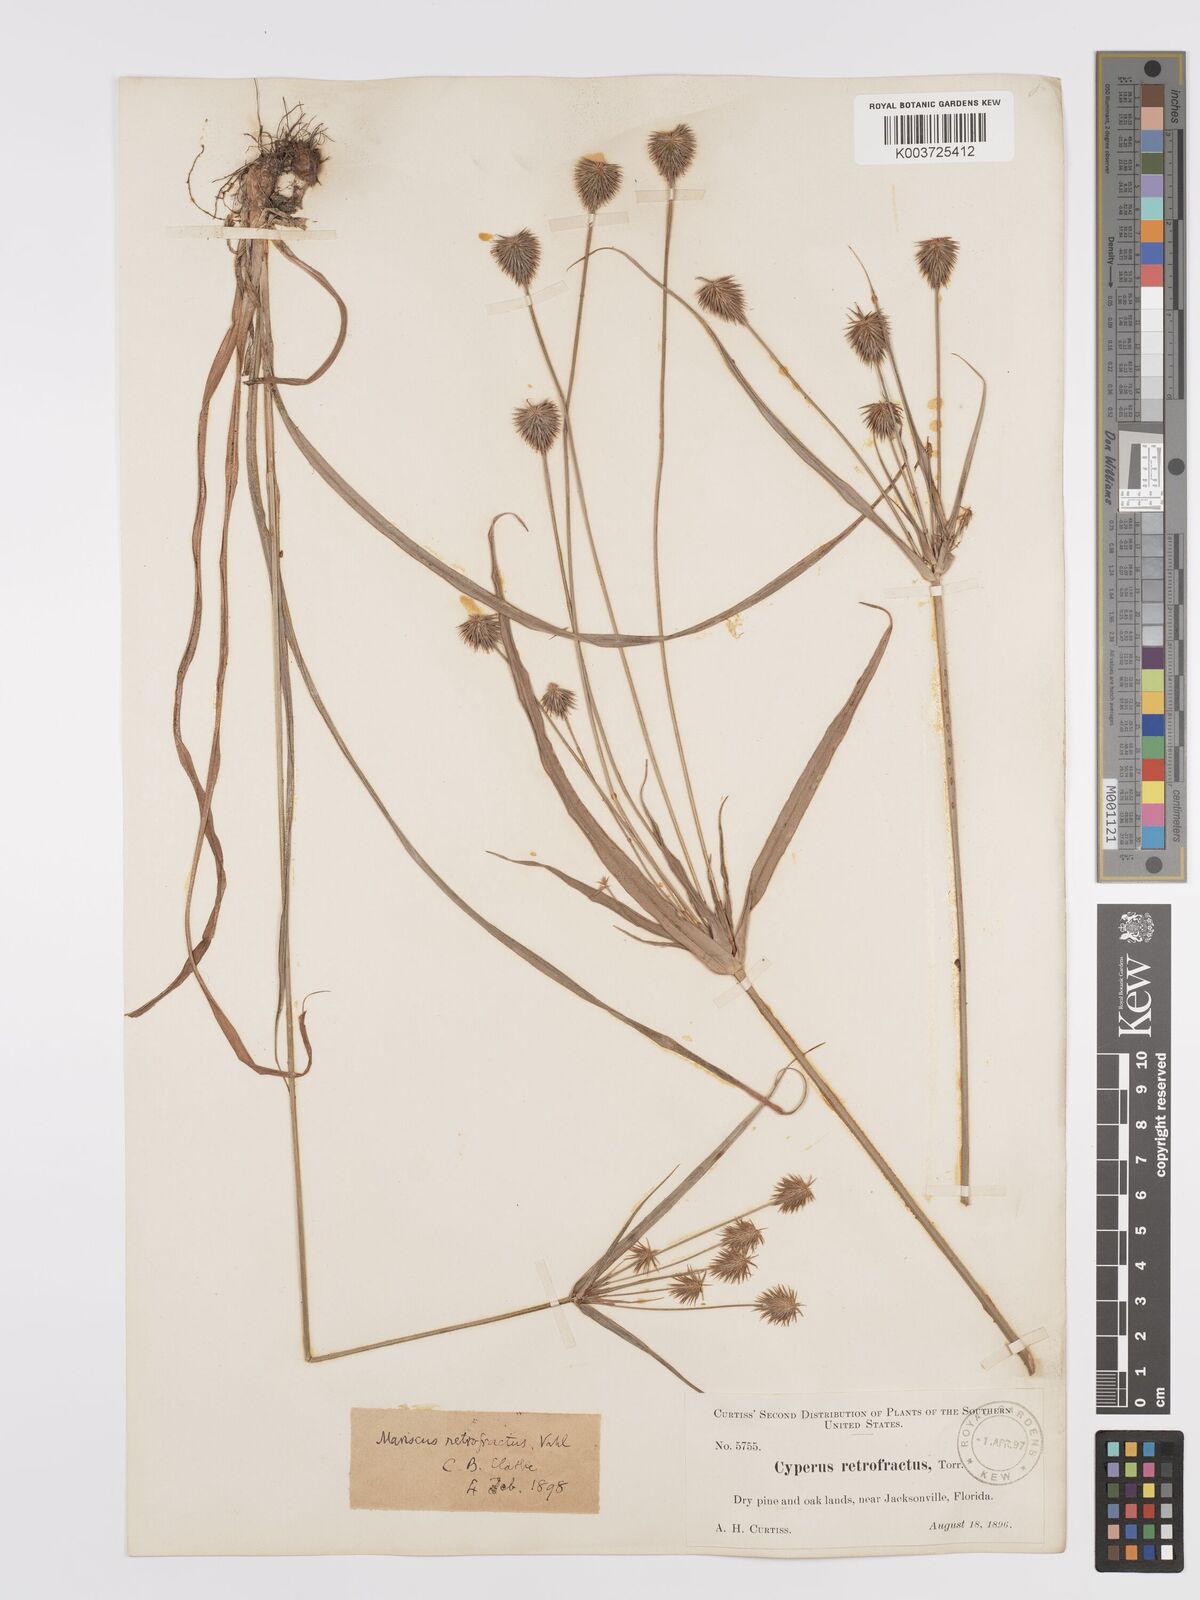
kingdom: Plantae
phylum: Tracheophyta
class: Liliopsida
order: Poales
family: Cyperaceae
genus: Cyperus
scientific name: Cyperus retrofractus
